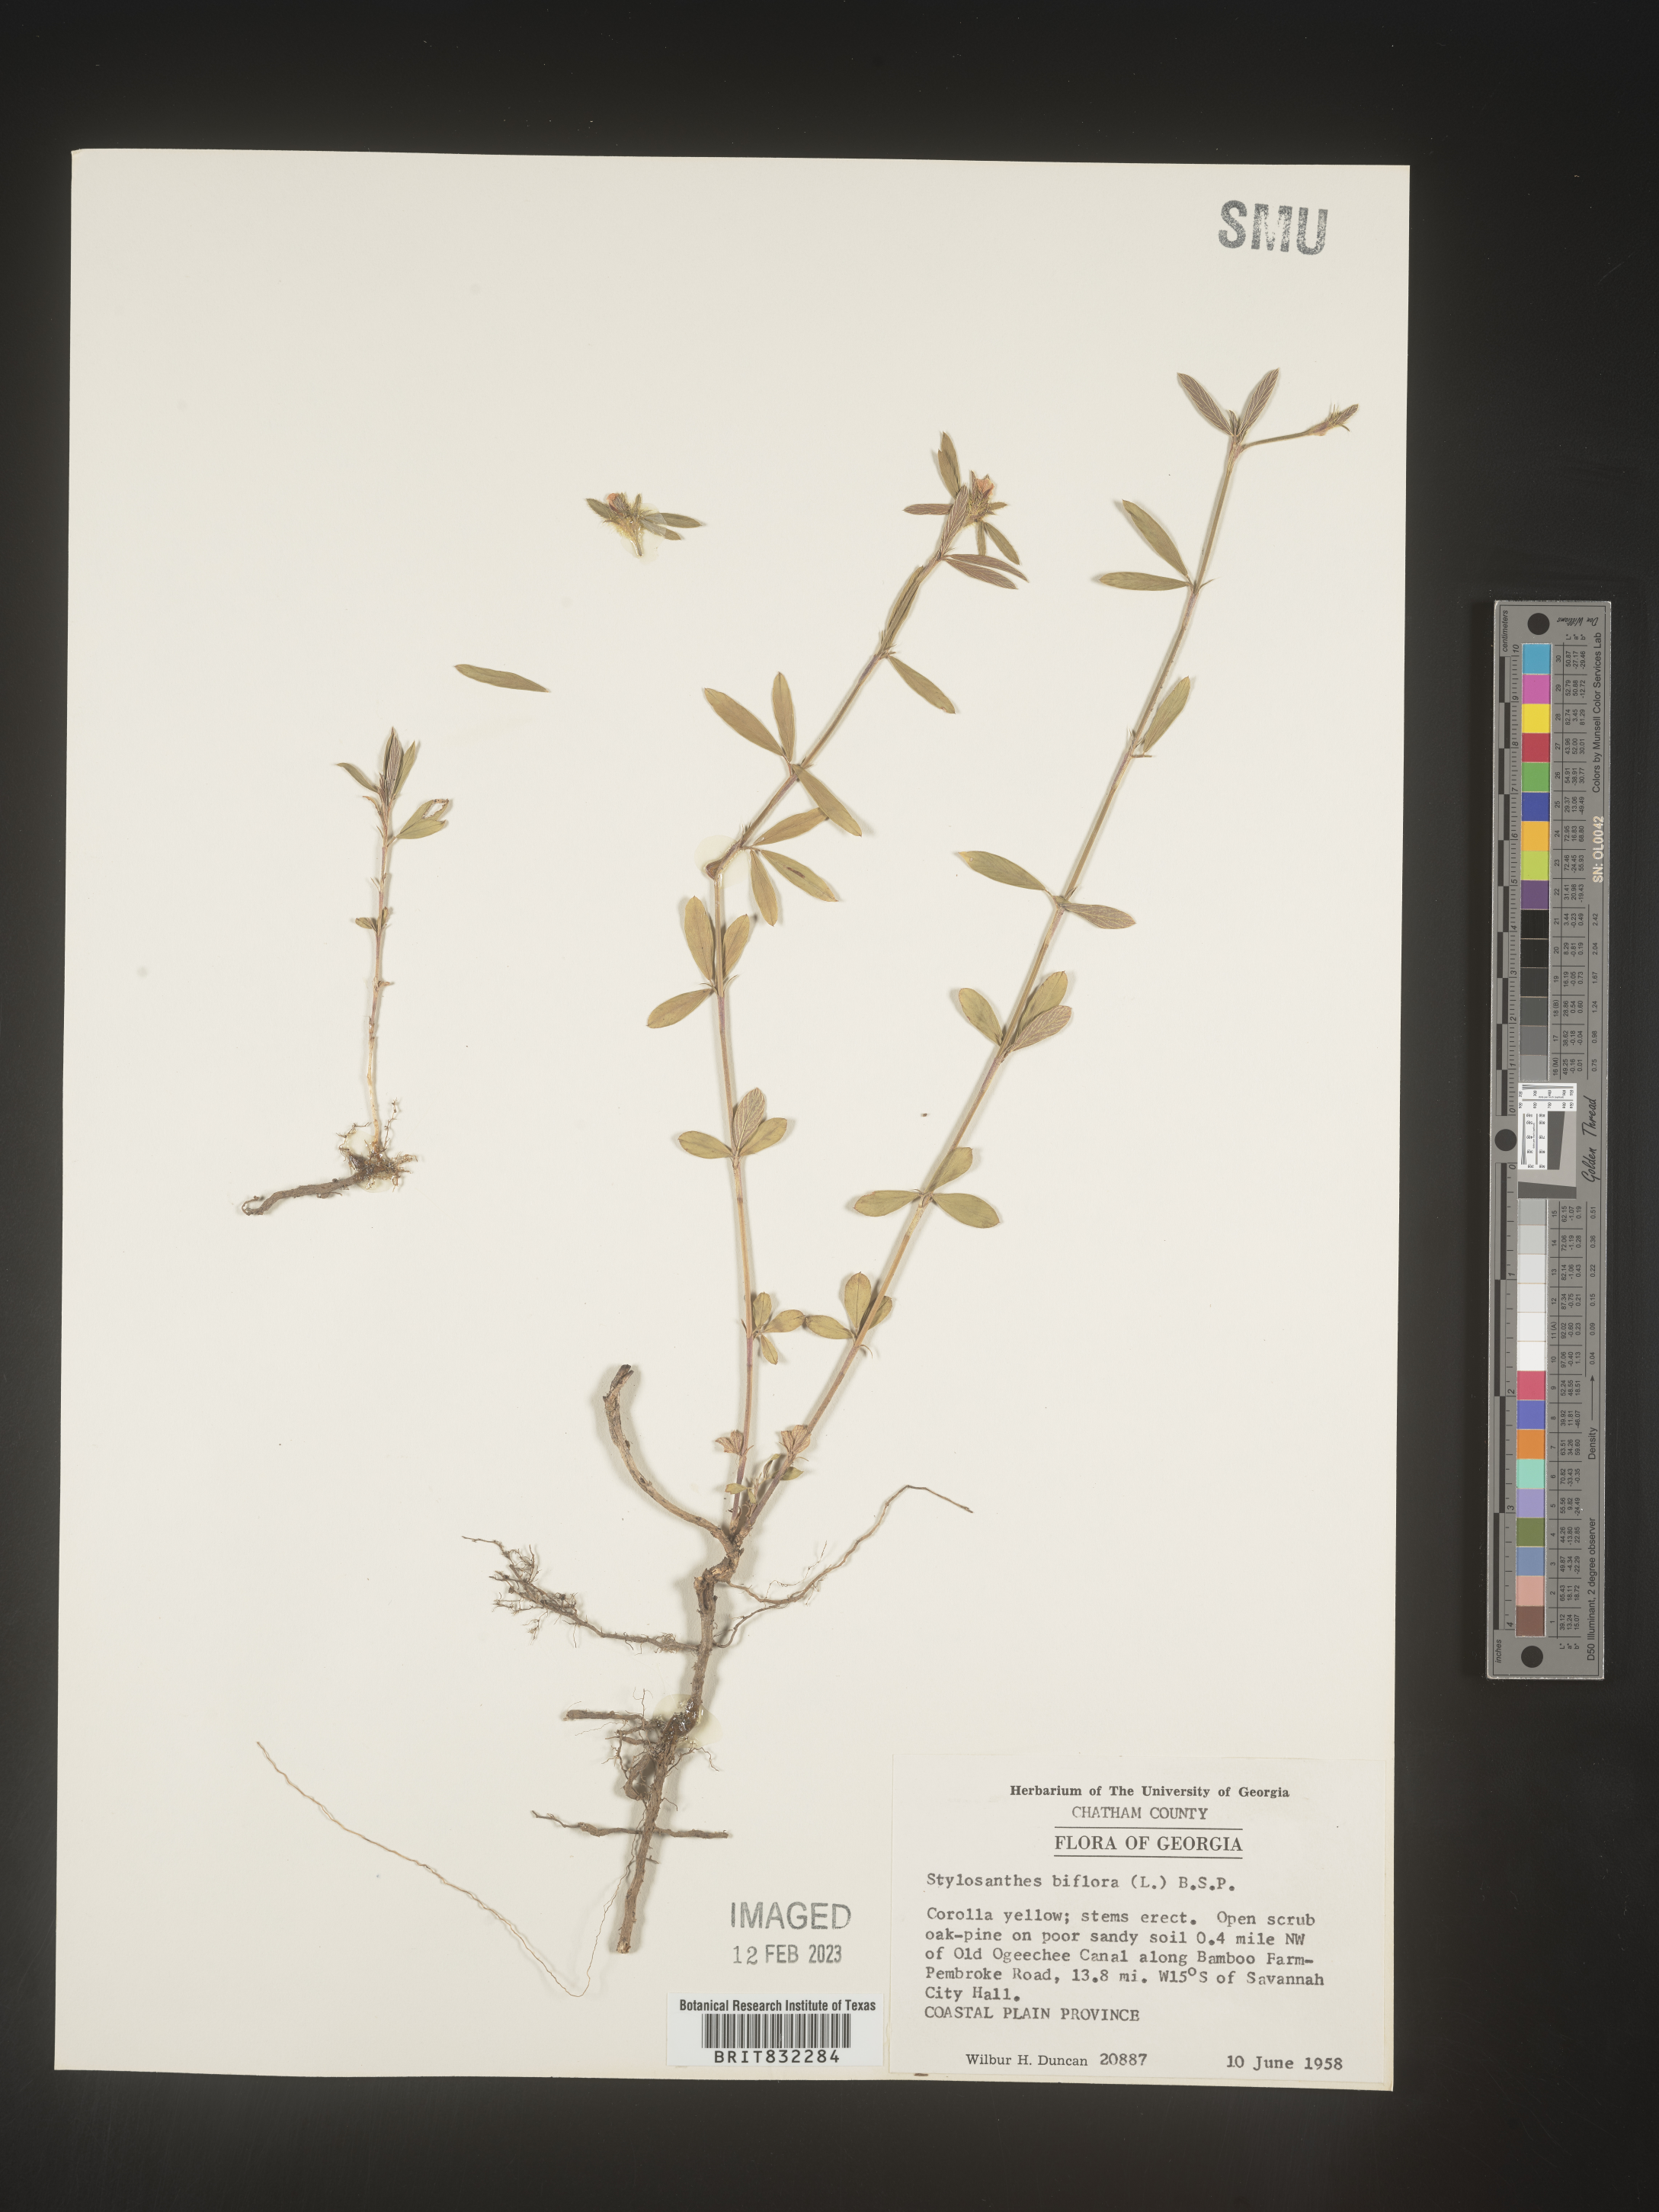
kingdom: Plantae
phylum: Tracheophyta
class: Magnoliopsida
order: Fabales
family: Fabaceae
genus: Stylosanthes
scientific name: Stylosanthes biflora
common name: Two-flower pencil-flower
